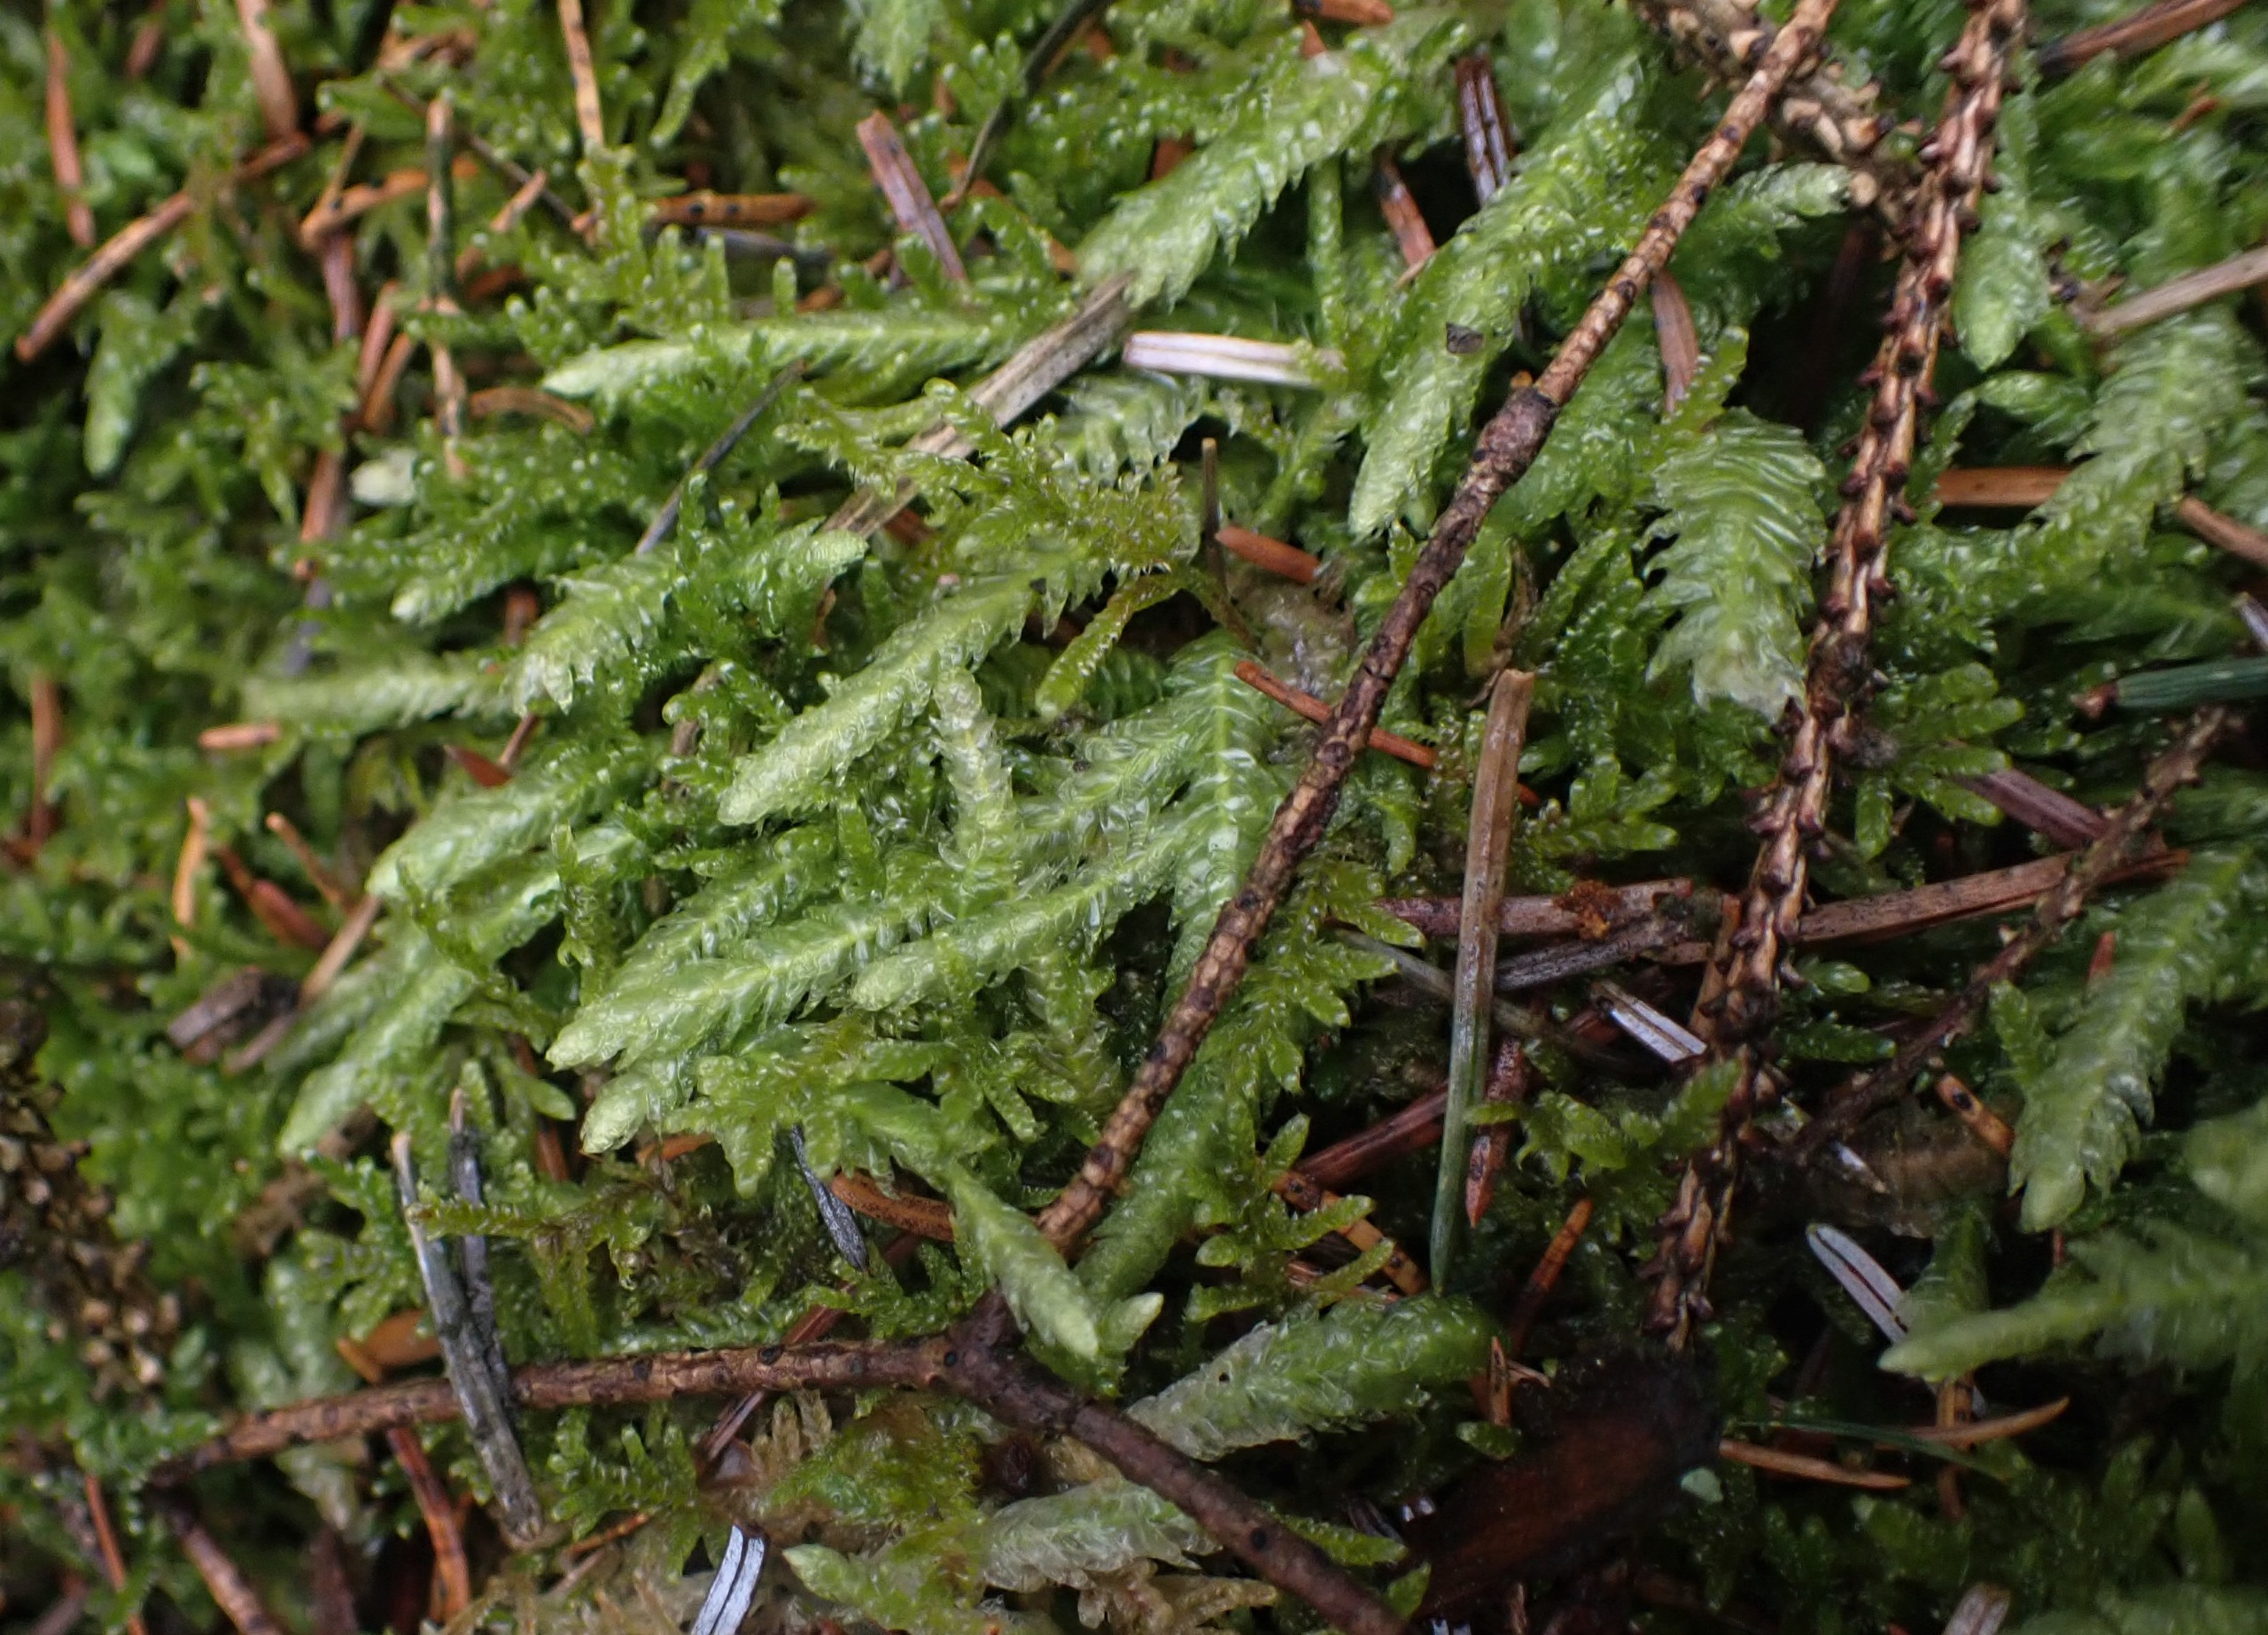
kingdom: Plantae
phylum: Bryophyta
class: Bryopsida
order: Hypnales
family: Plagiotheciaceae
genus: Plagiothecium
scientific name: Plagiothecium undulatum
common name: Bølget tæppemos
